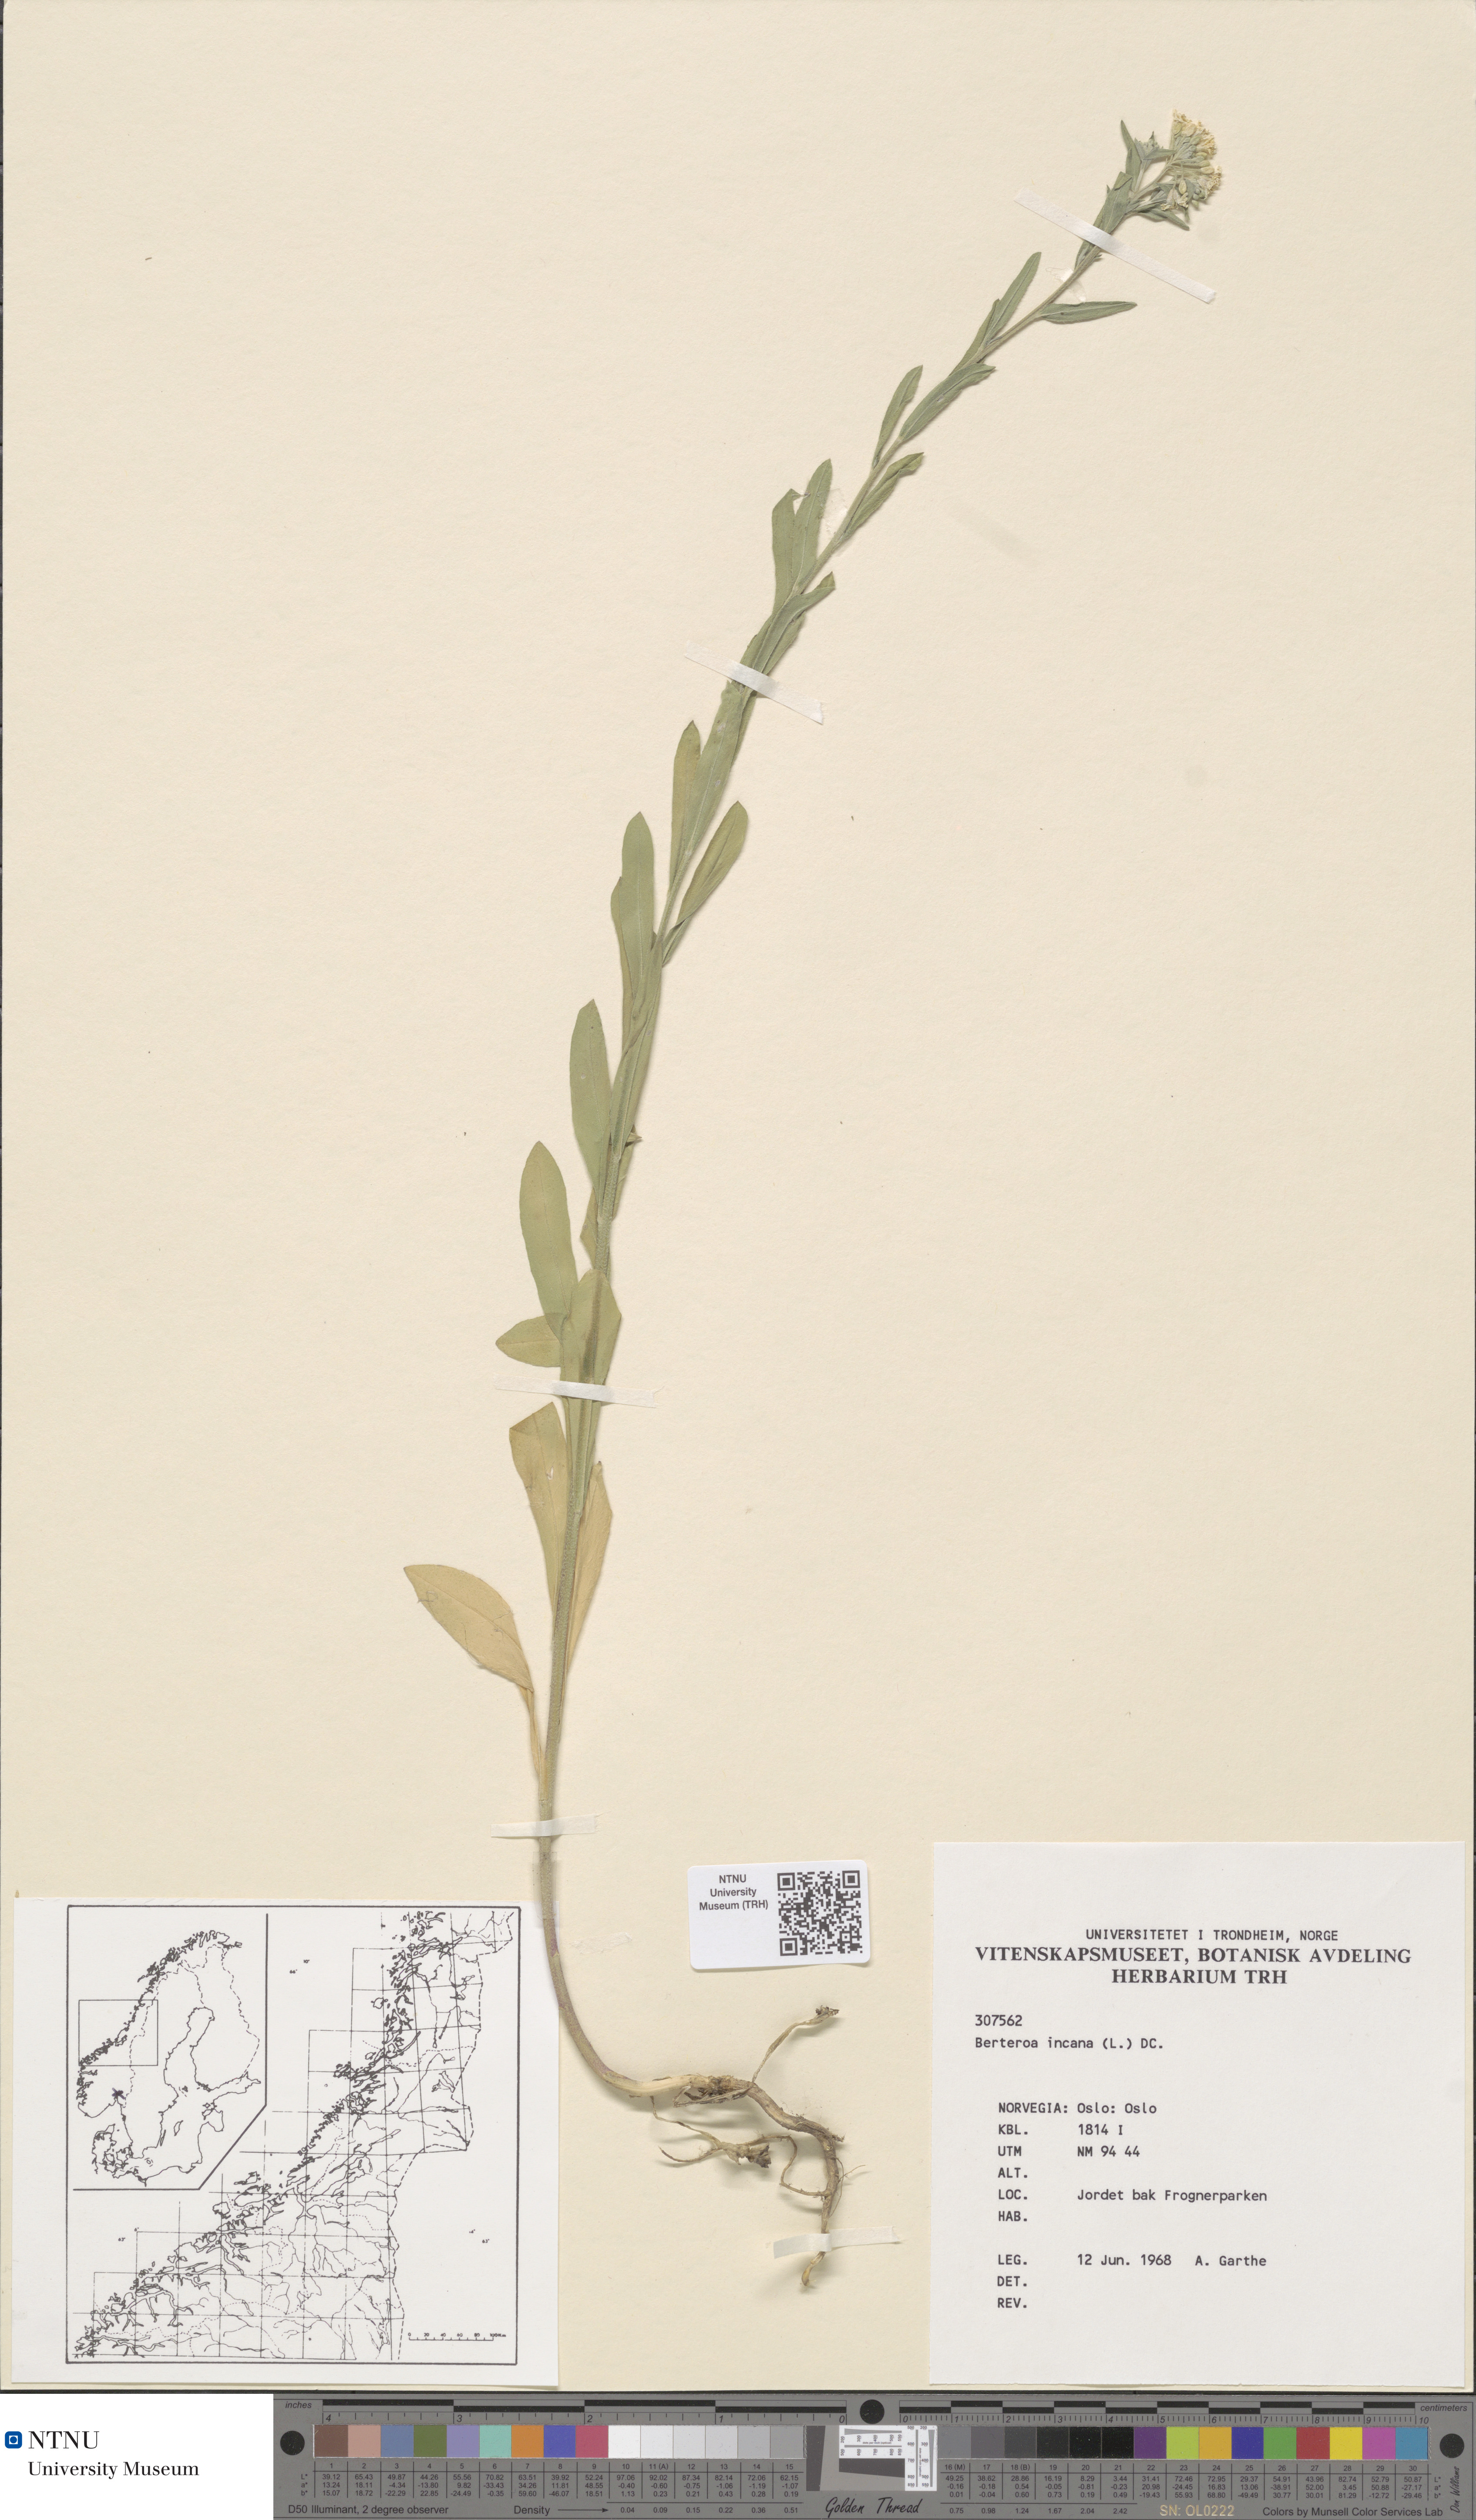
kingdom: Plantae
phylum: Tracheophyta
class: Magnoliopsida
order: Brassicales
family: Brassicaceae
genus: Berteroa
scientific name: Berteroa incana
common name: Hoary alison
